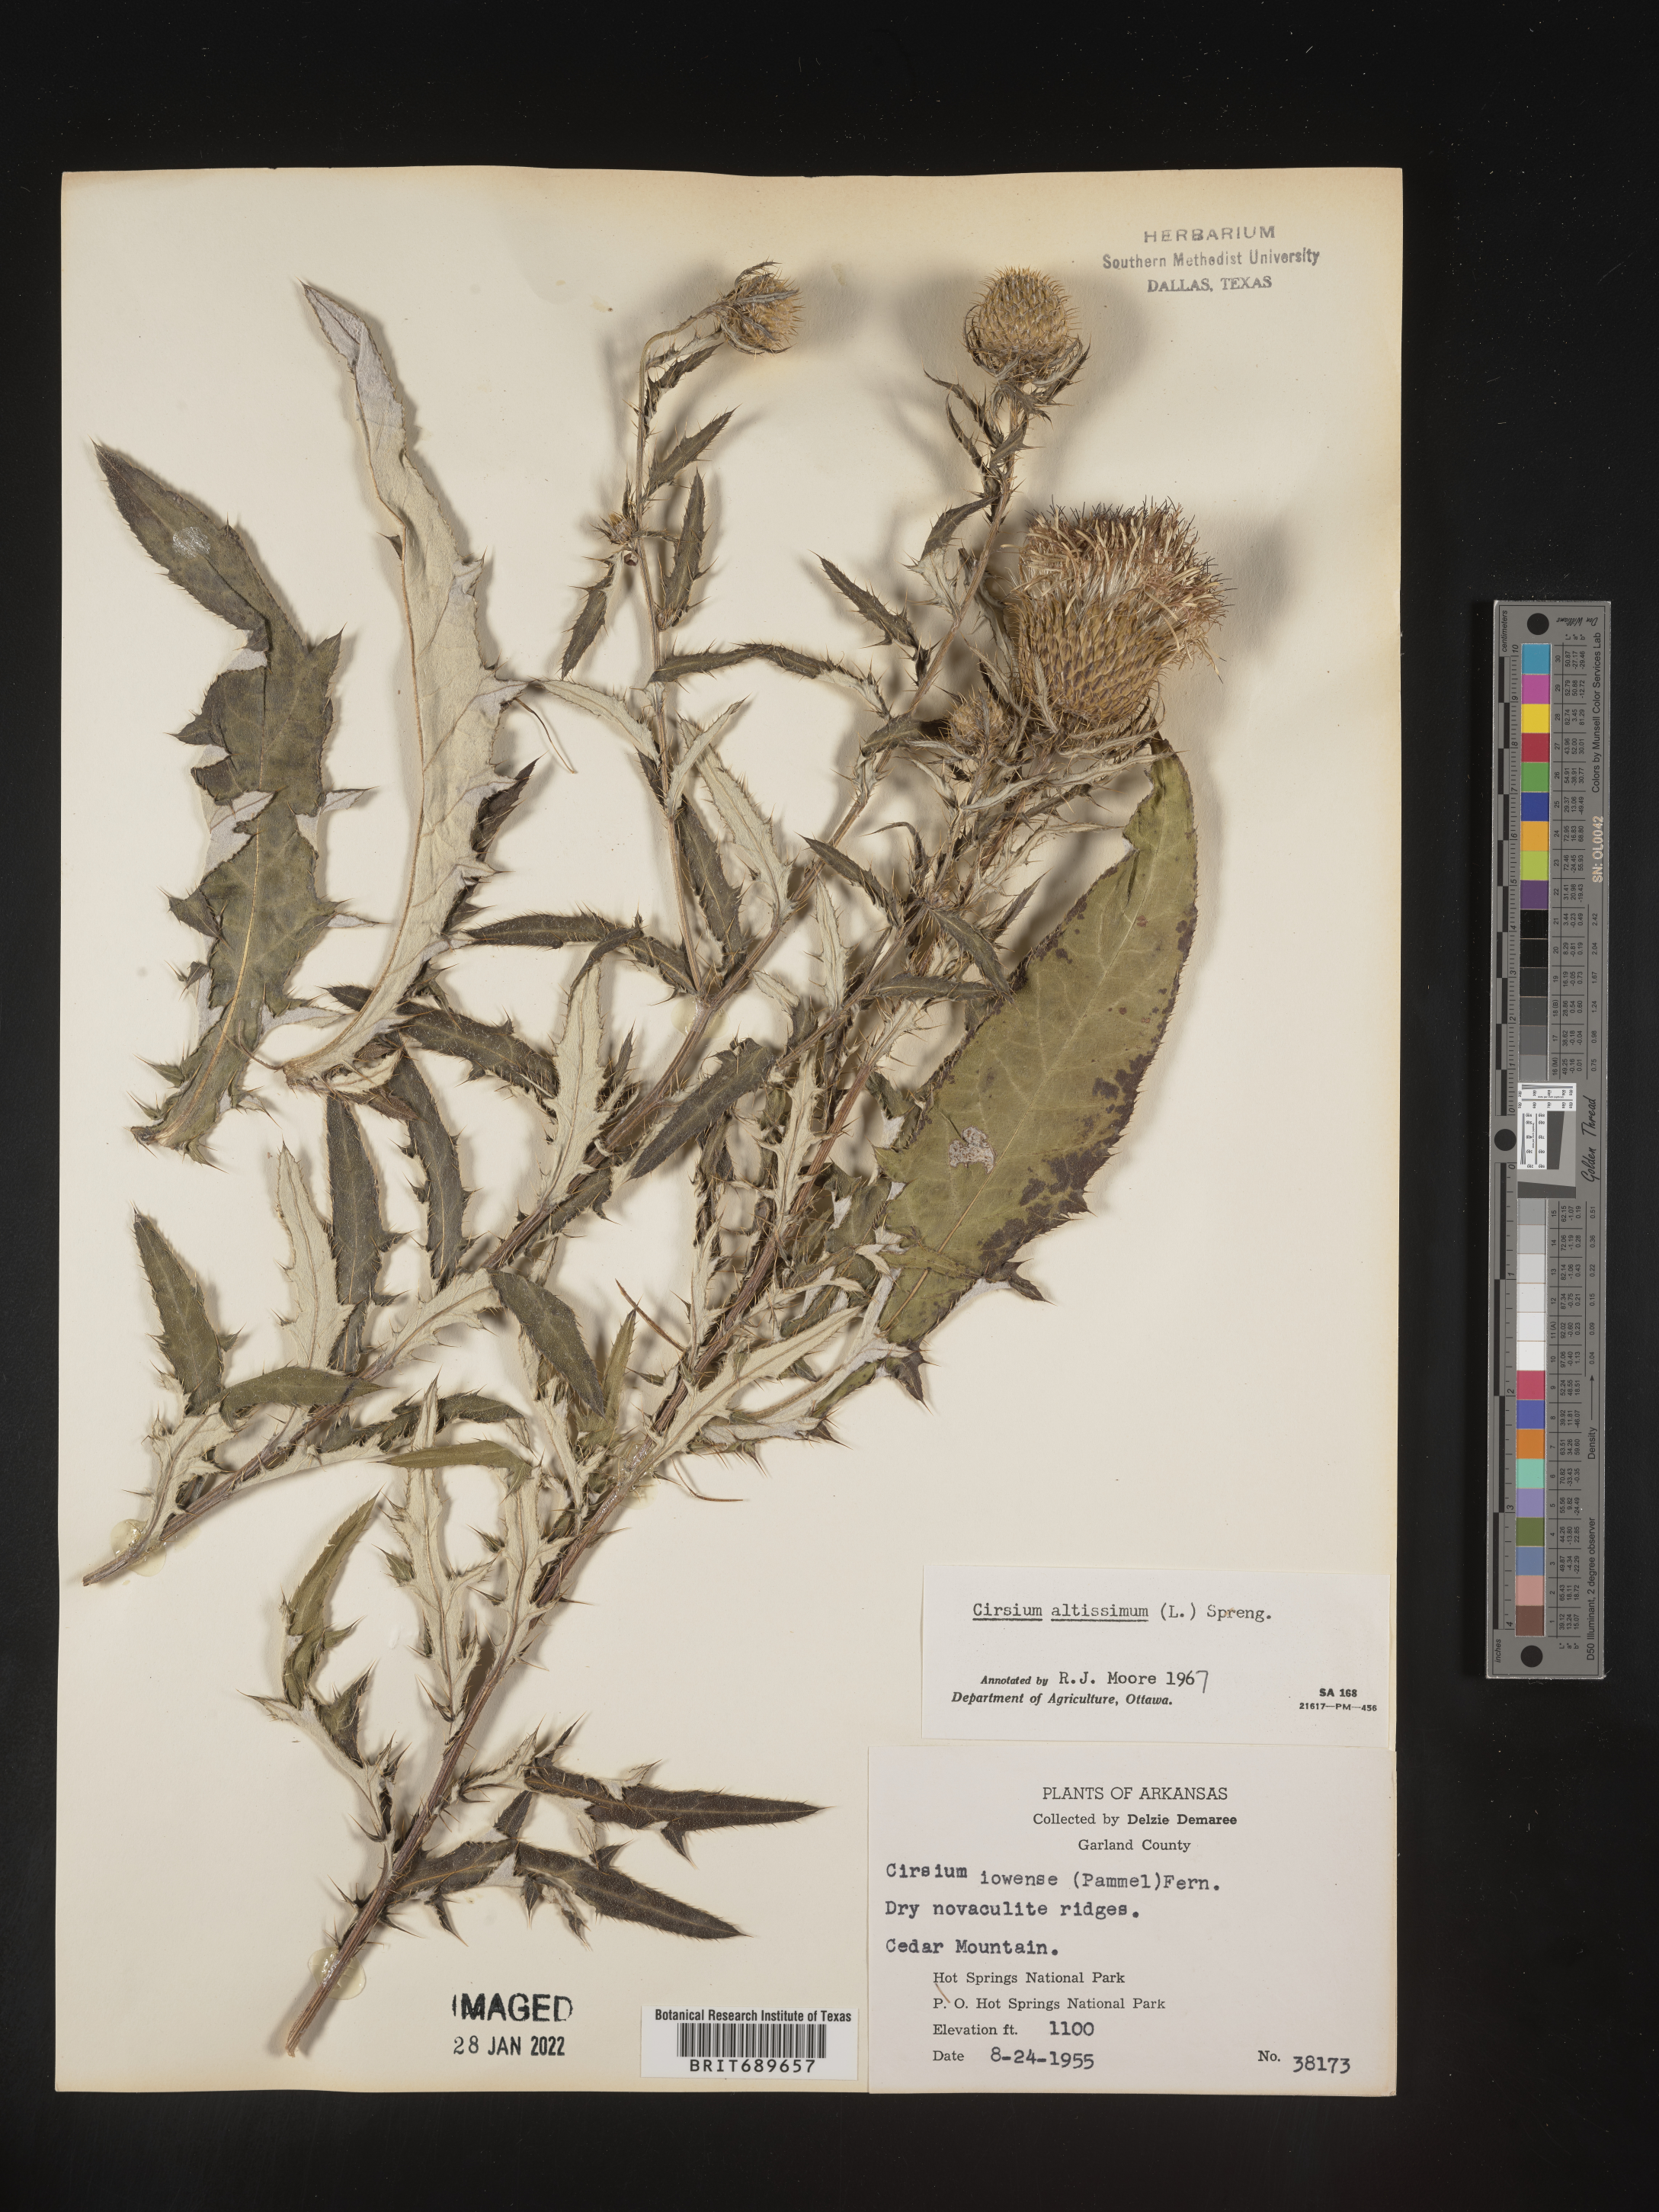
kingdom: Plantae
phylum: Tracheophyta
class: Magnoliopsida
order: Asterales
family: Asteraceae
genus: Cirsium
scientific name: Cirsium altissimum
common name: Roadside thistle
